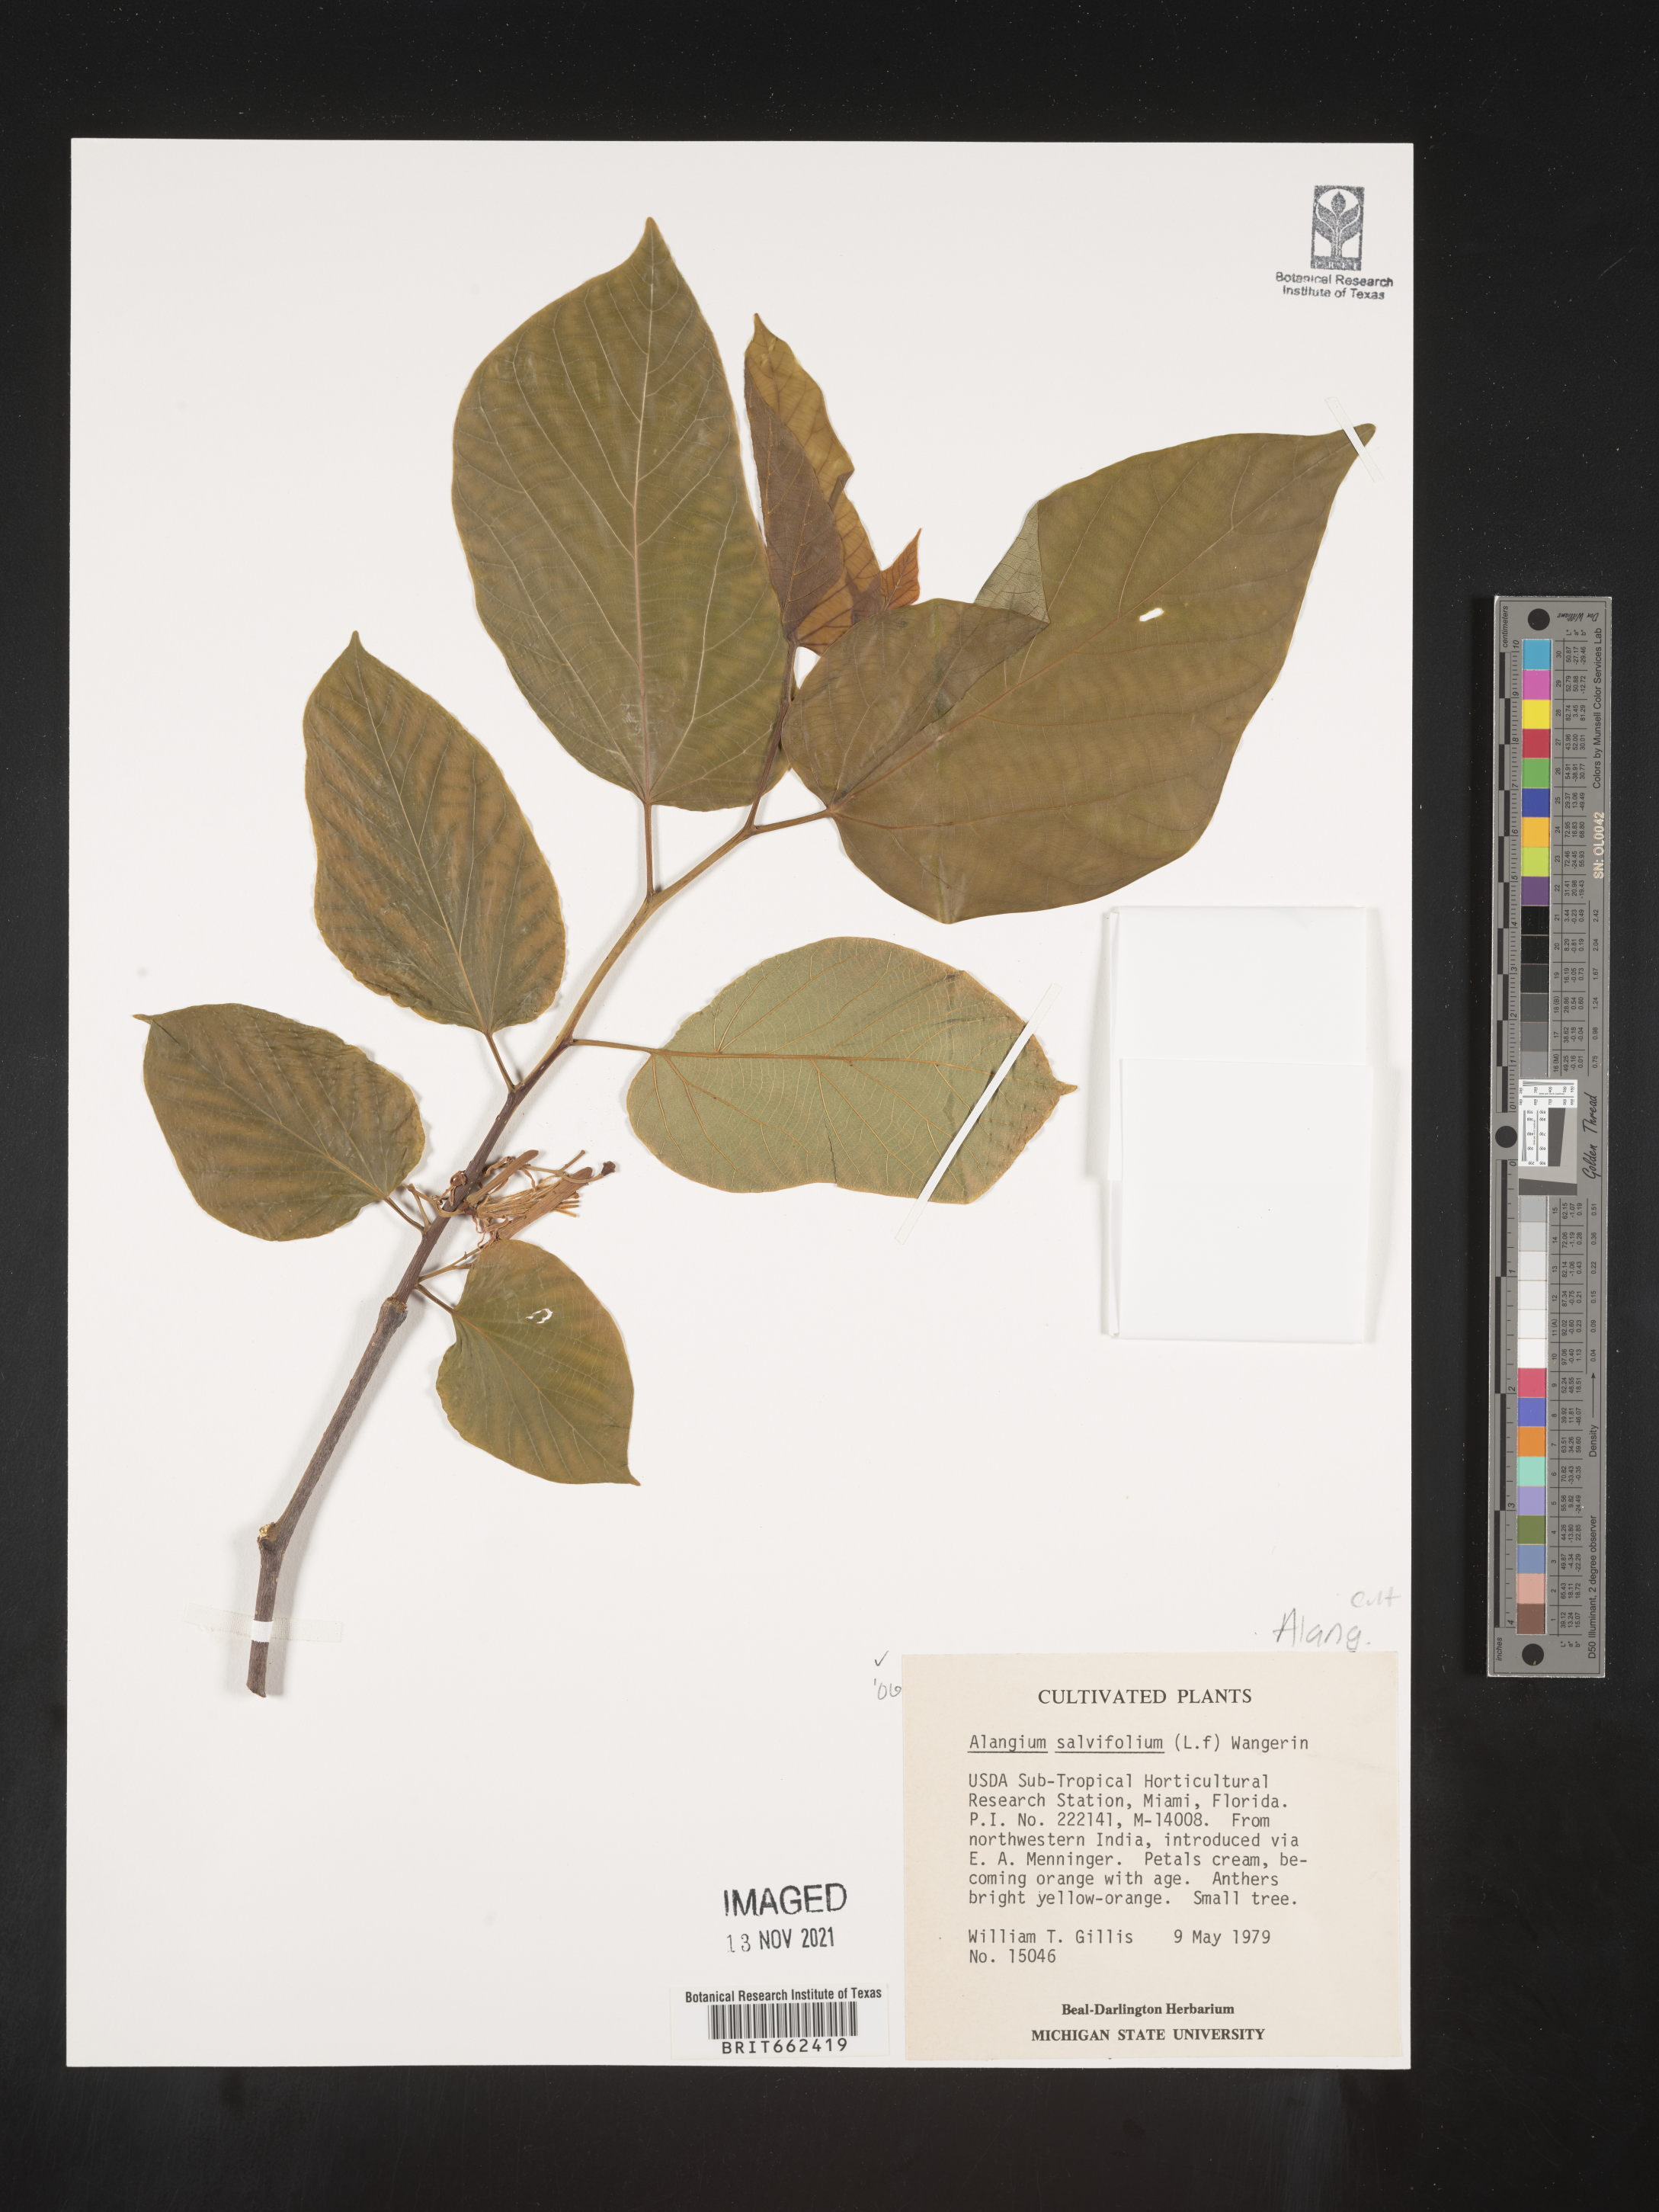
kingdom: Plantae
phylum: Tracheophyta
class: Magnoliopsida
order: Cornales
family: Cornaceae
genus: Alangium
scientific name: Alangium
